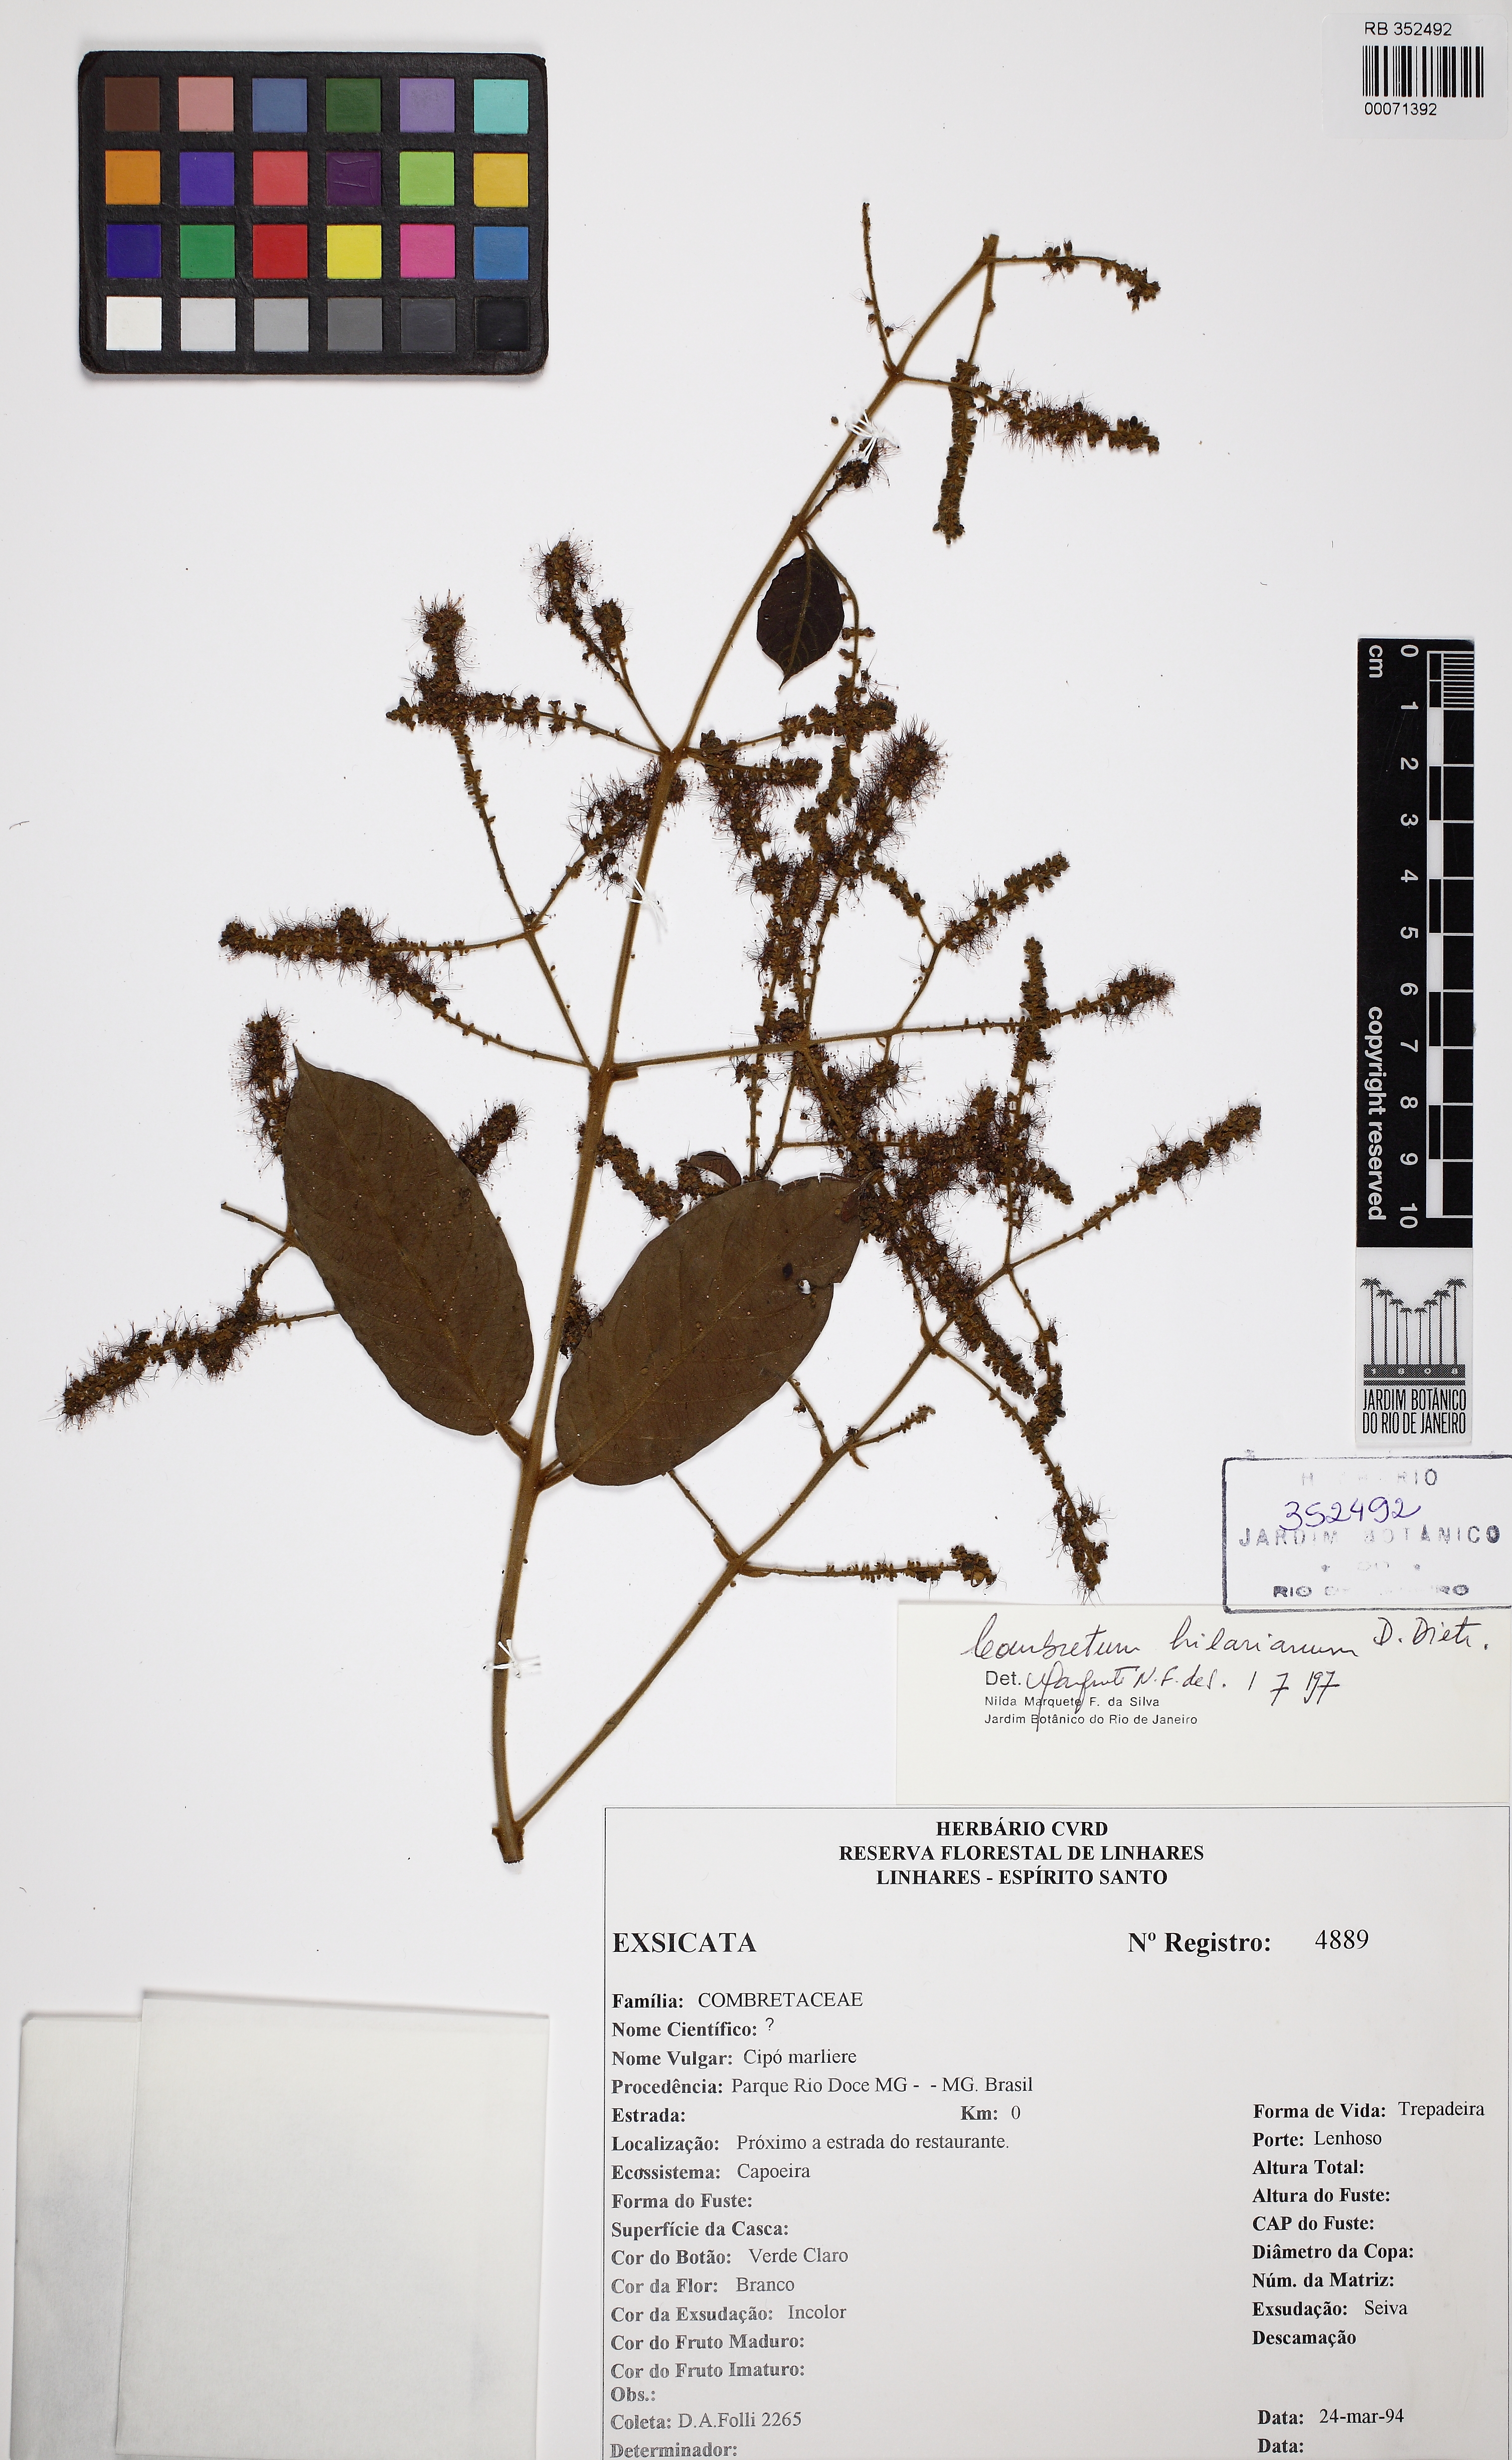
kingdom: Plantae
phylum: Tracheophyta
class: Magnoliopsida
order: Myrtales
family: Combretaceae
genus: Combretum
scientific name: Combretum hilarianum
